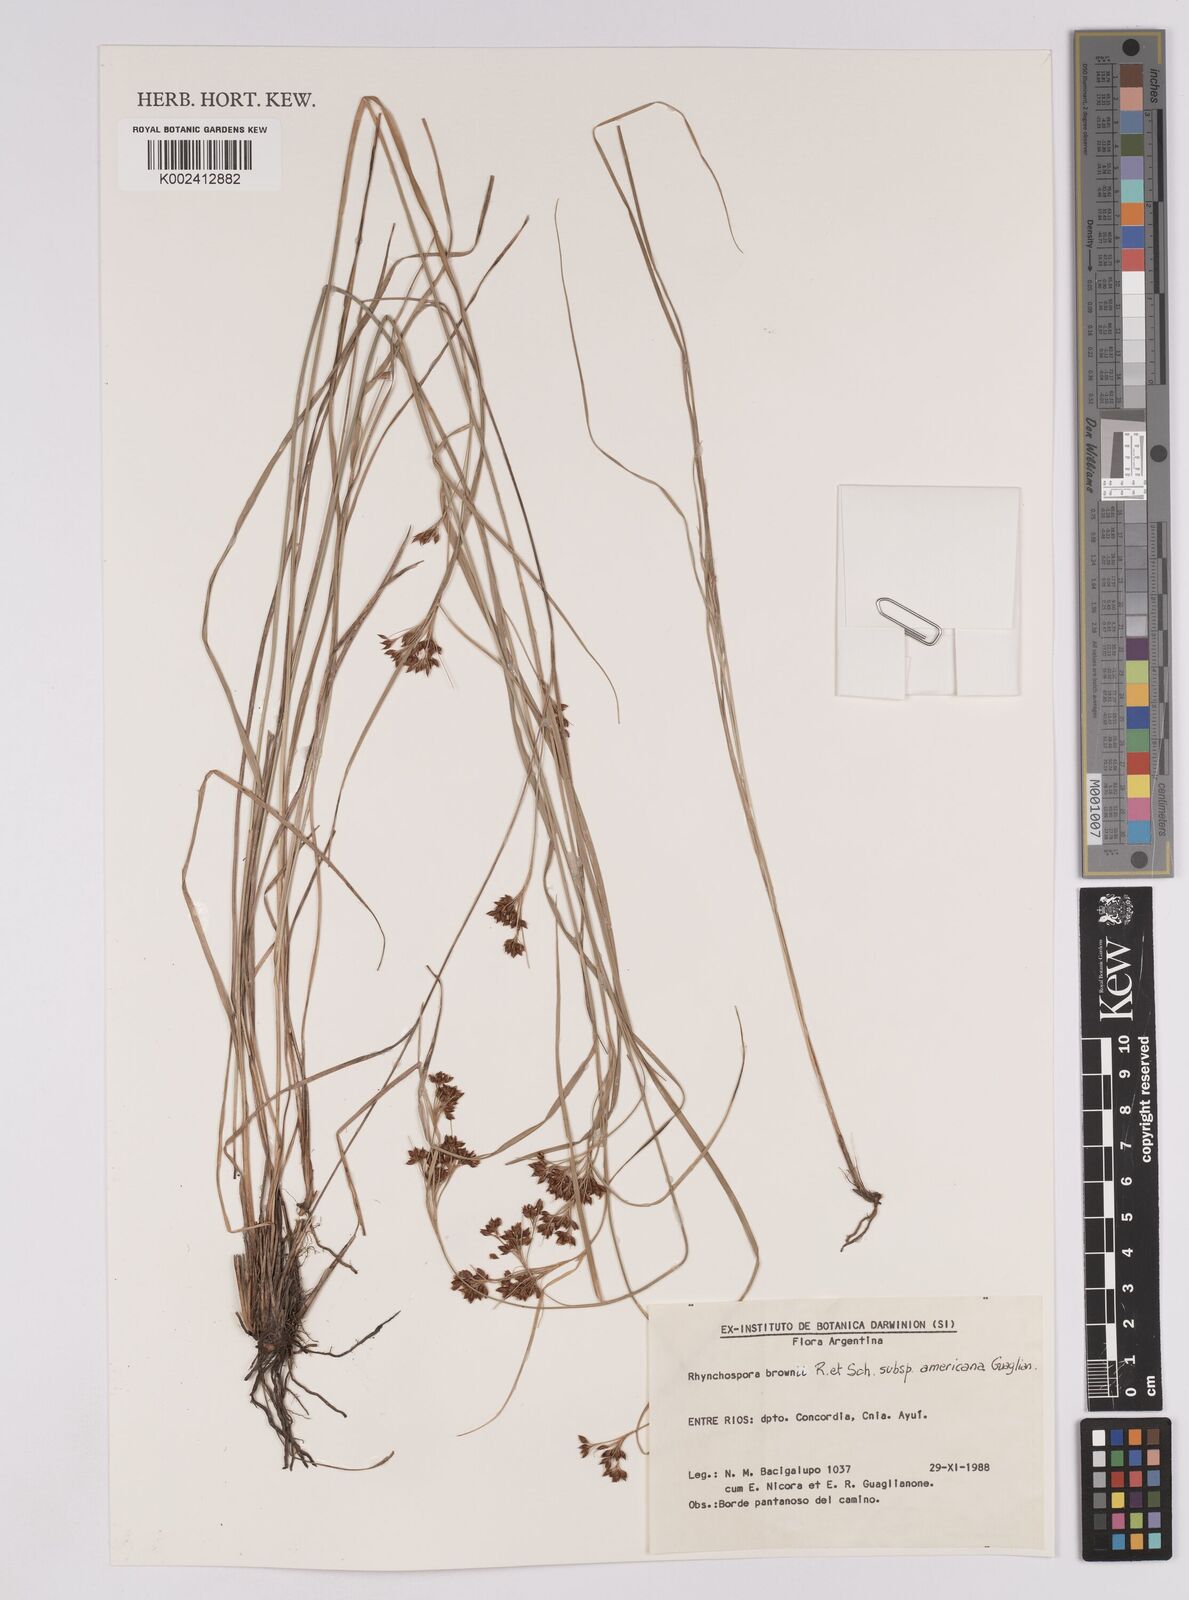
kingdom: Plantae
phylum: Tracheophyta
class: Liliopsida
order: Poales
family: Cyperaceae
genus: Rhynchospora
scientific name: Rhynchospora brownii
